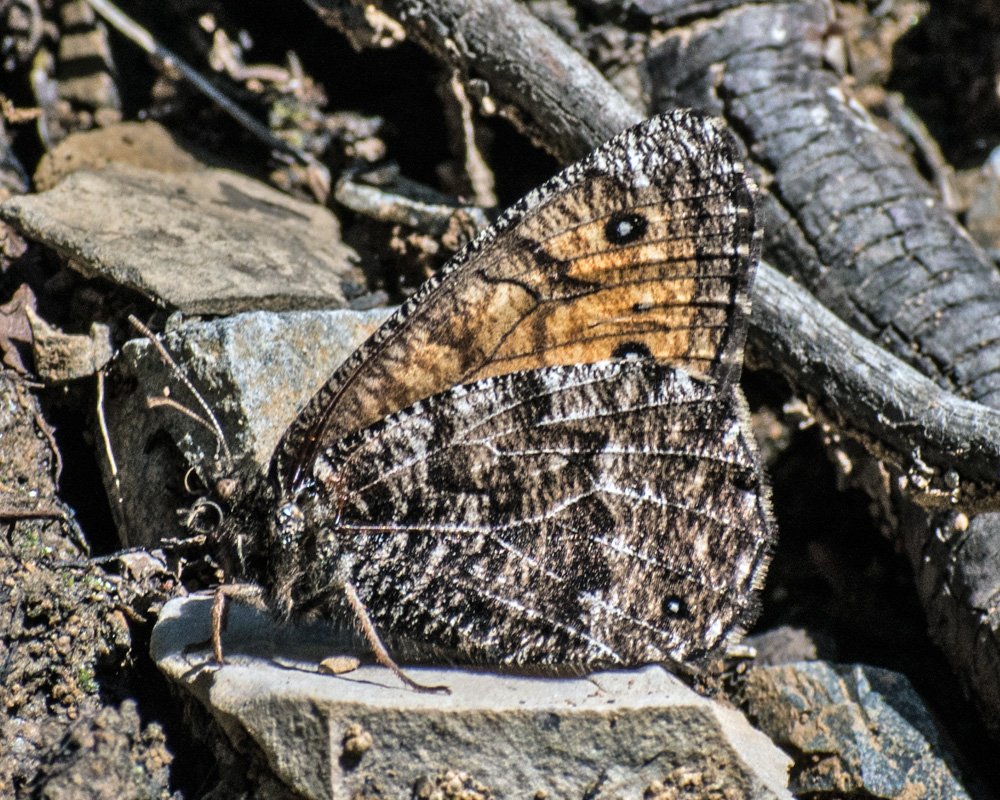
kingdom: Animalia
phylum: Arthropoda
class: Insecta
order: Lepidoptera
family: Nymphalidae
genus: Oeneis
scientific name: Oeneis chryxus
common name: Chryxus Arctic
